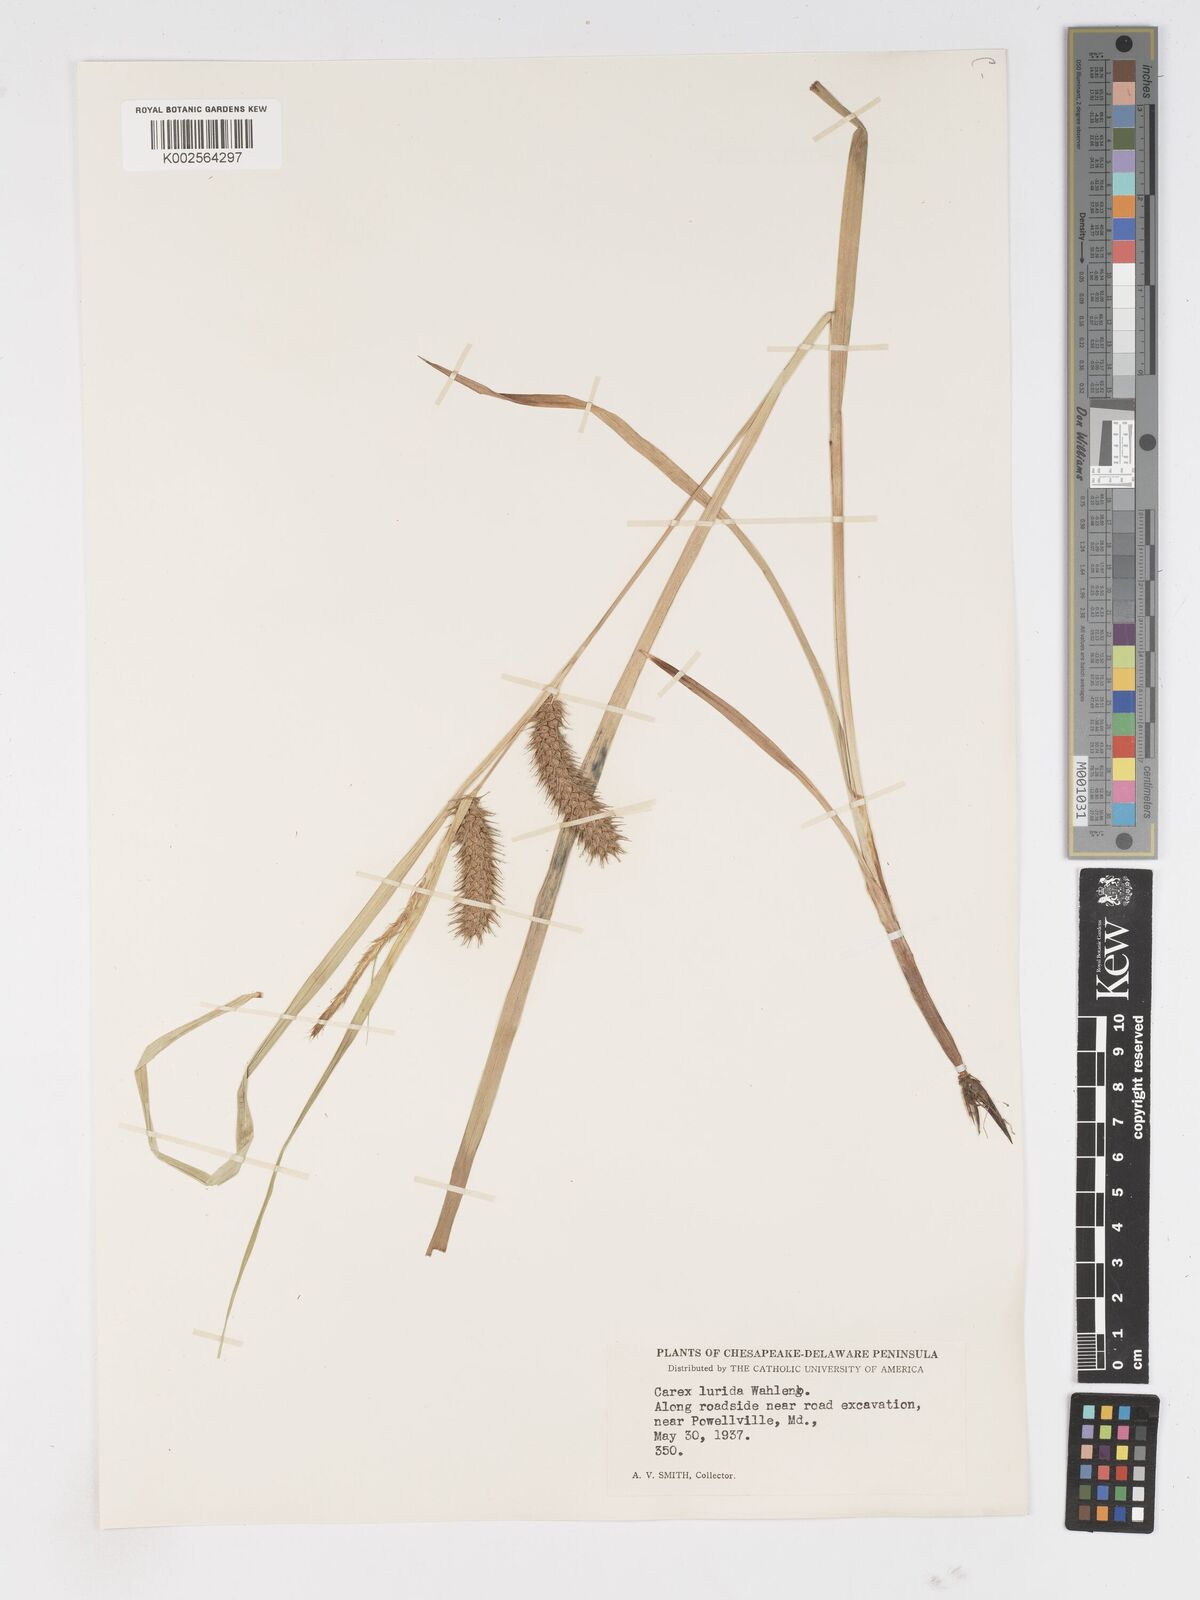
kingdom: Plantae
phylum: Tracheophyta
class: Liliopsida
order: Poales
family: Cyperaceae
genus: Carex
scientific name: Carex lurida
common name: Sallow sedge
